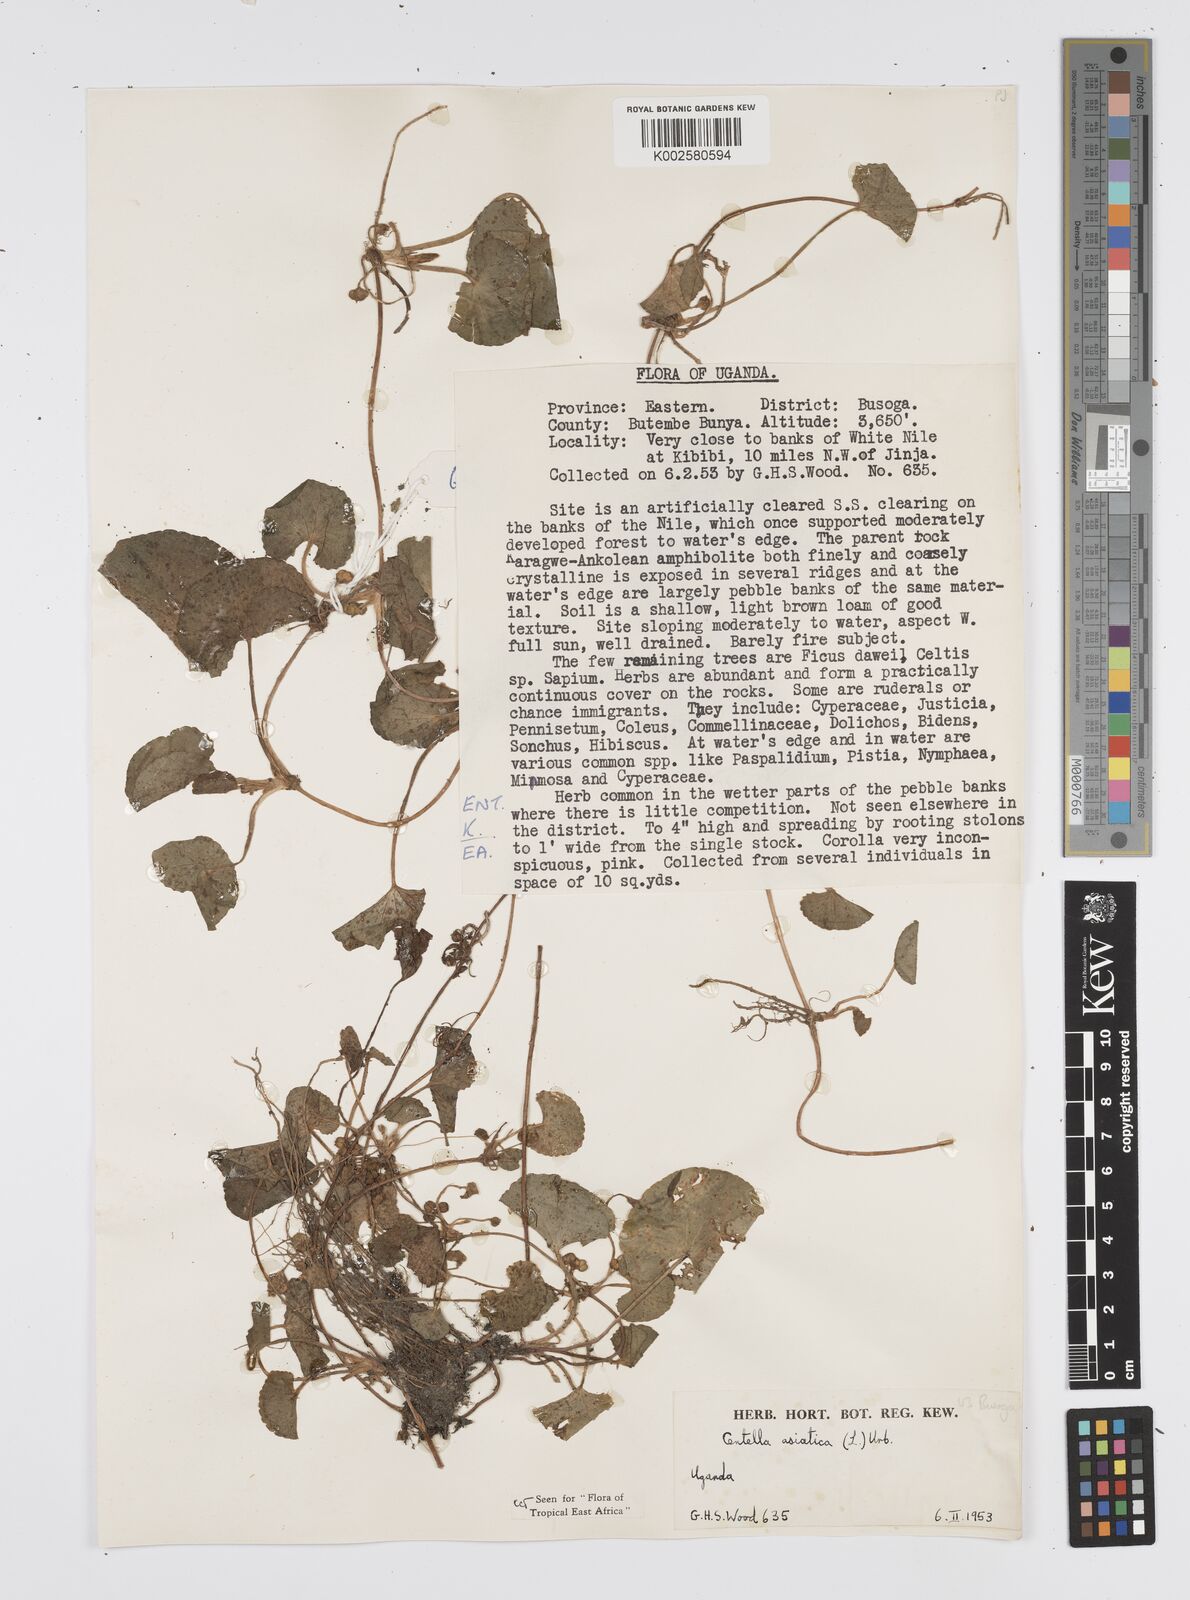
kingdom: Plantae
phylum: Tracheophyta
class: Magnoliopsida
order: Apiales
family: Apiaceae
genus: Centella
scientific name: Centella asiatica
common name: Spadeleaf
